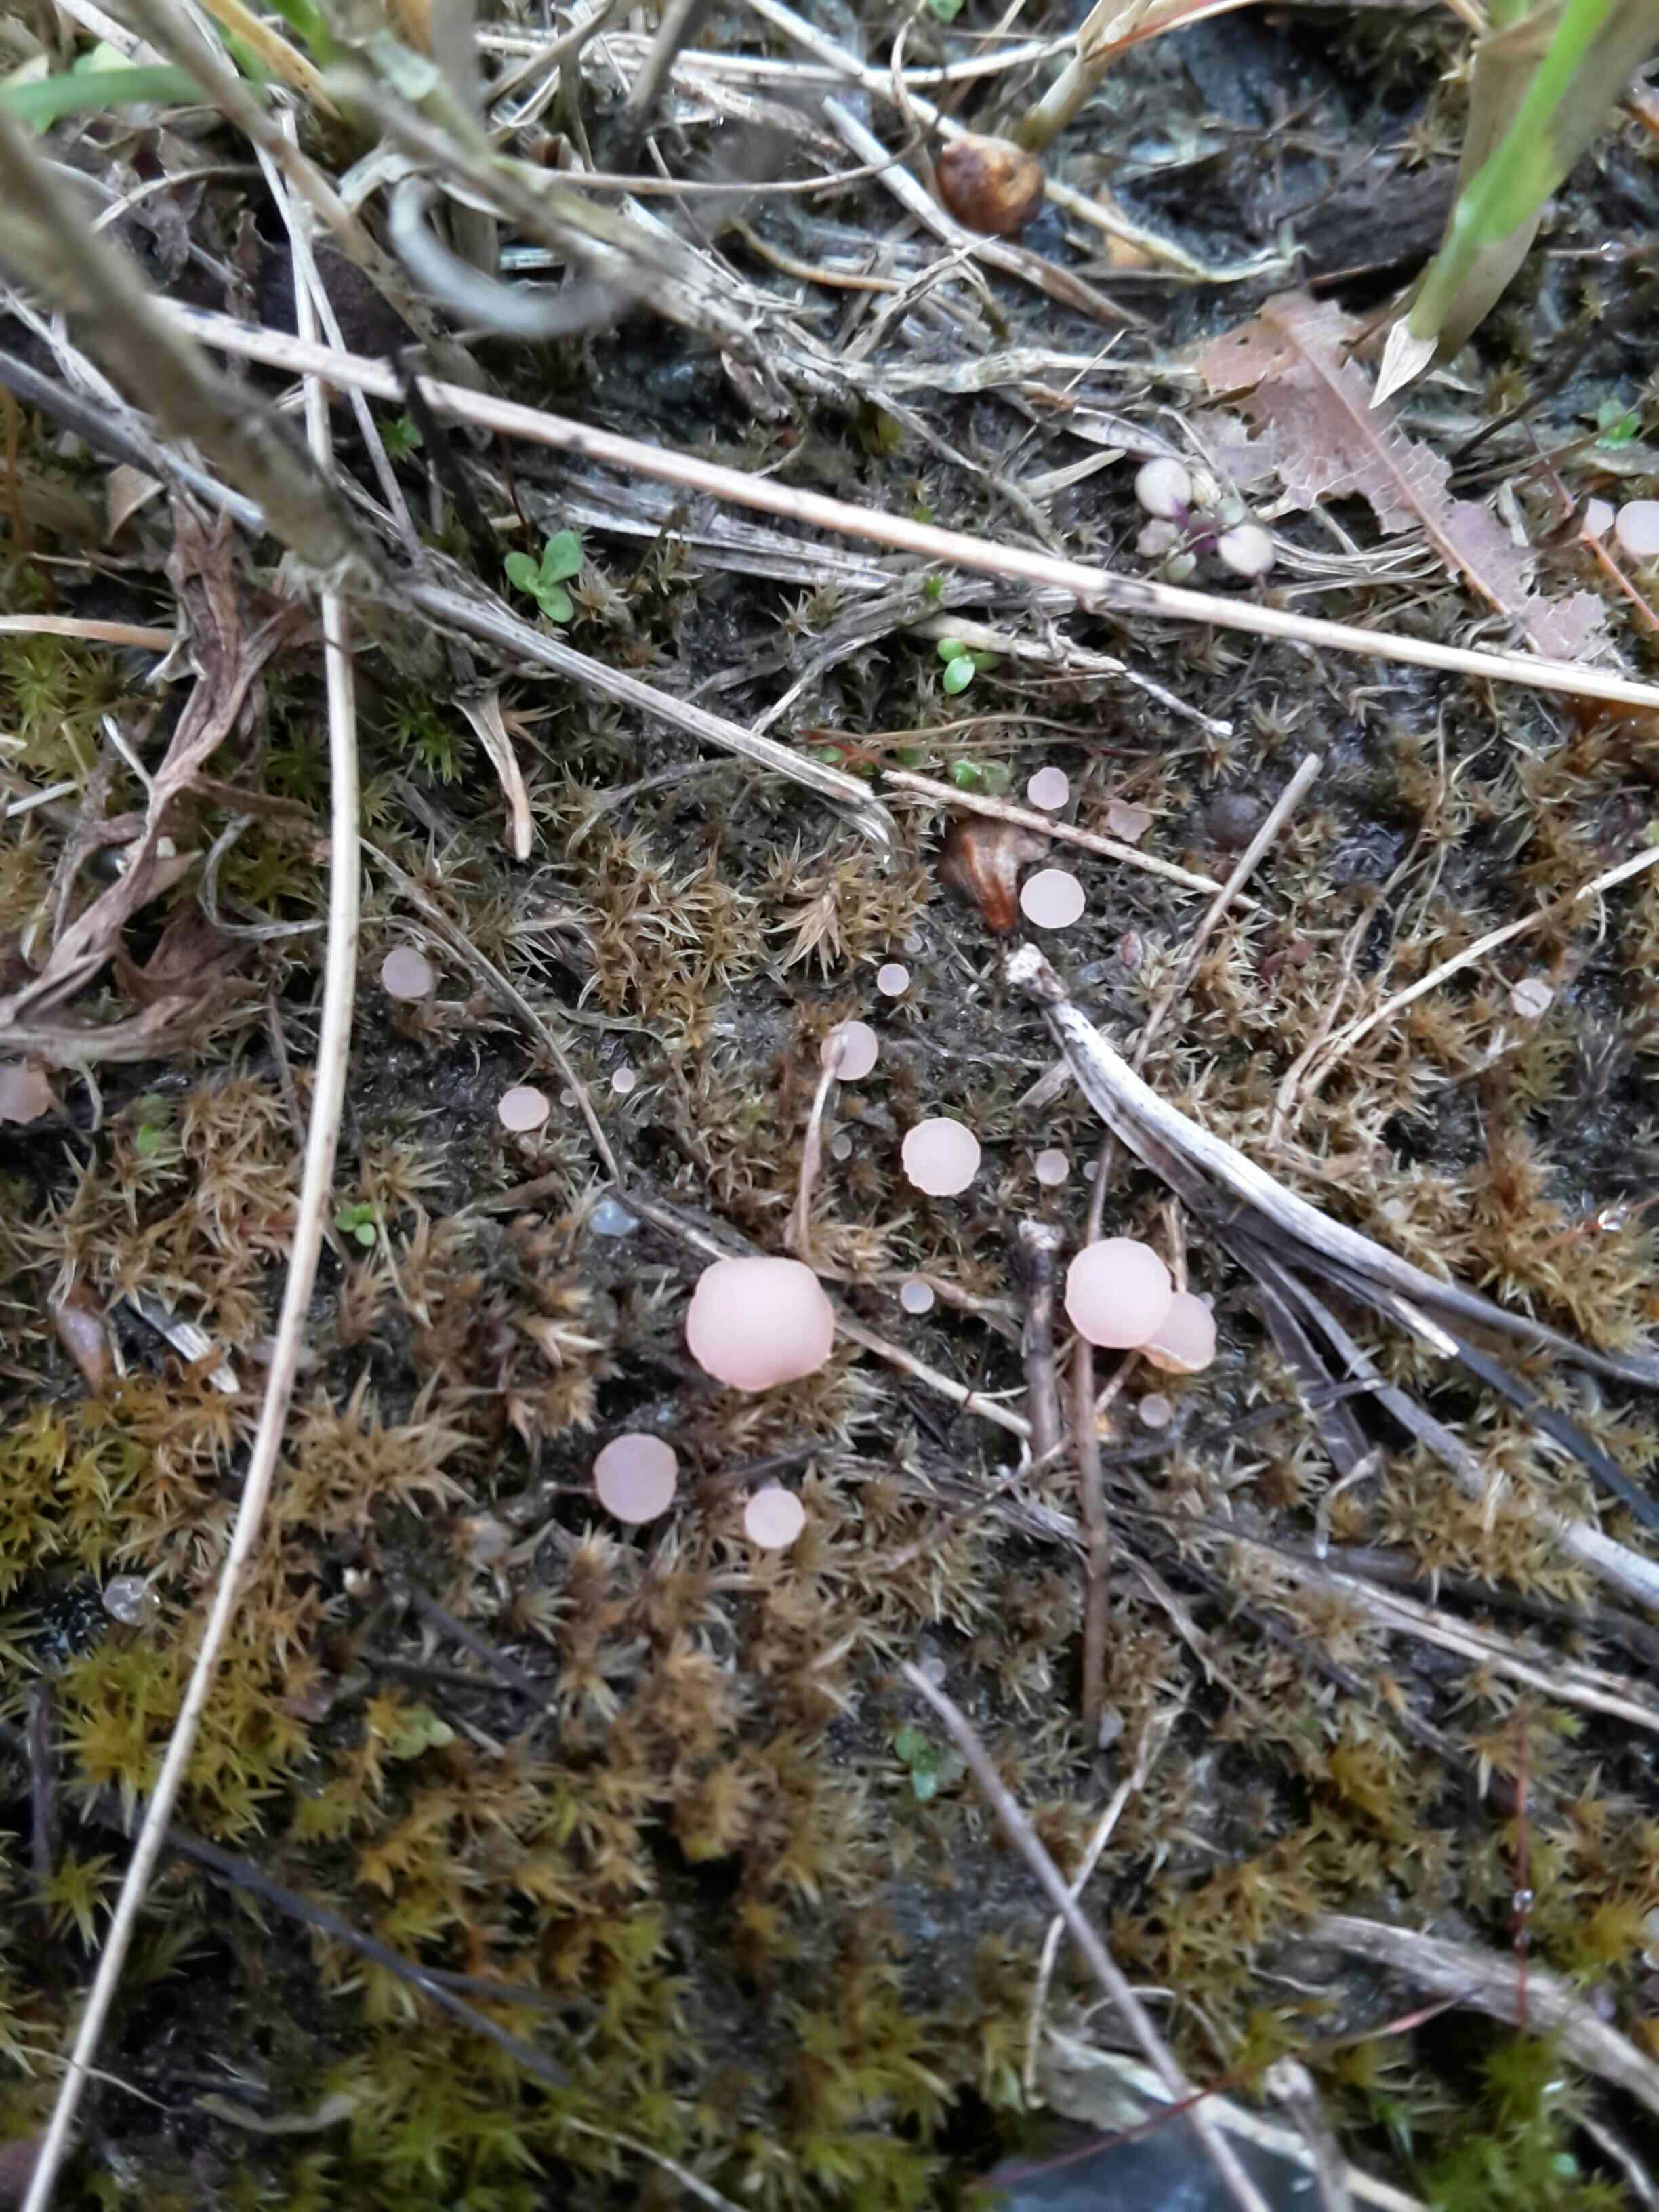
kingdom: Fungi
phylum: Ascomycota
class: Leotiomycetes
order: Helotiales
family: Hyaloscyphaceae
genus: Roseodiscus
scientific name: Roseodiscus formosus
